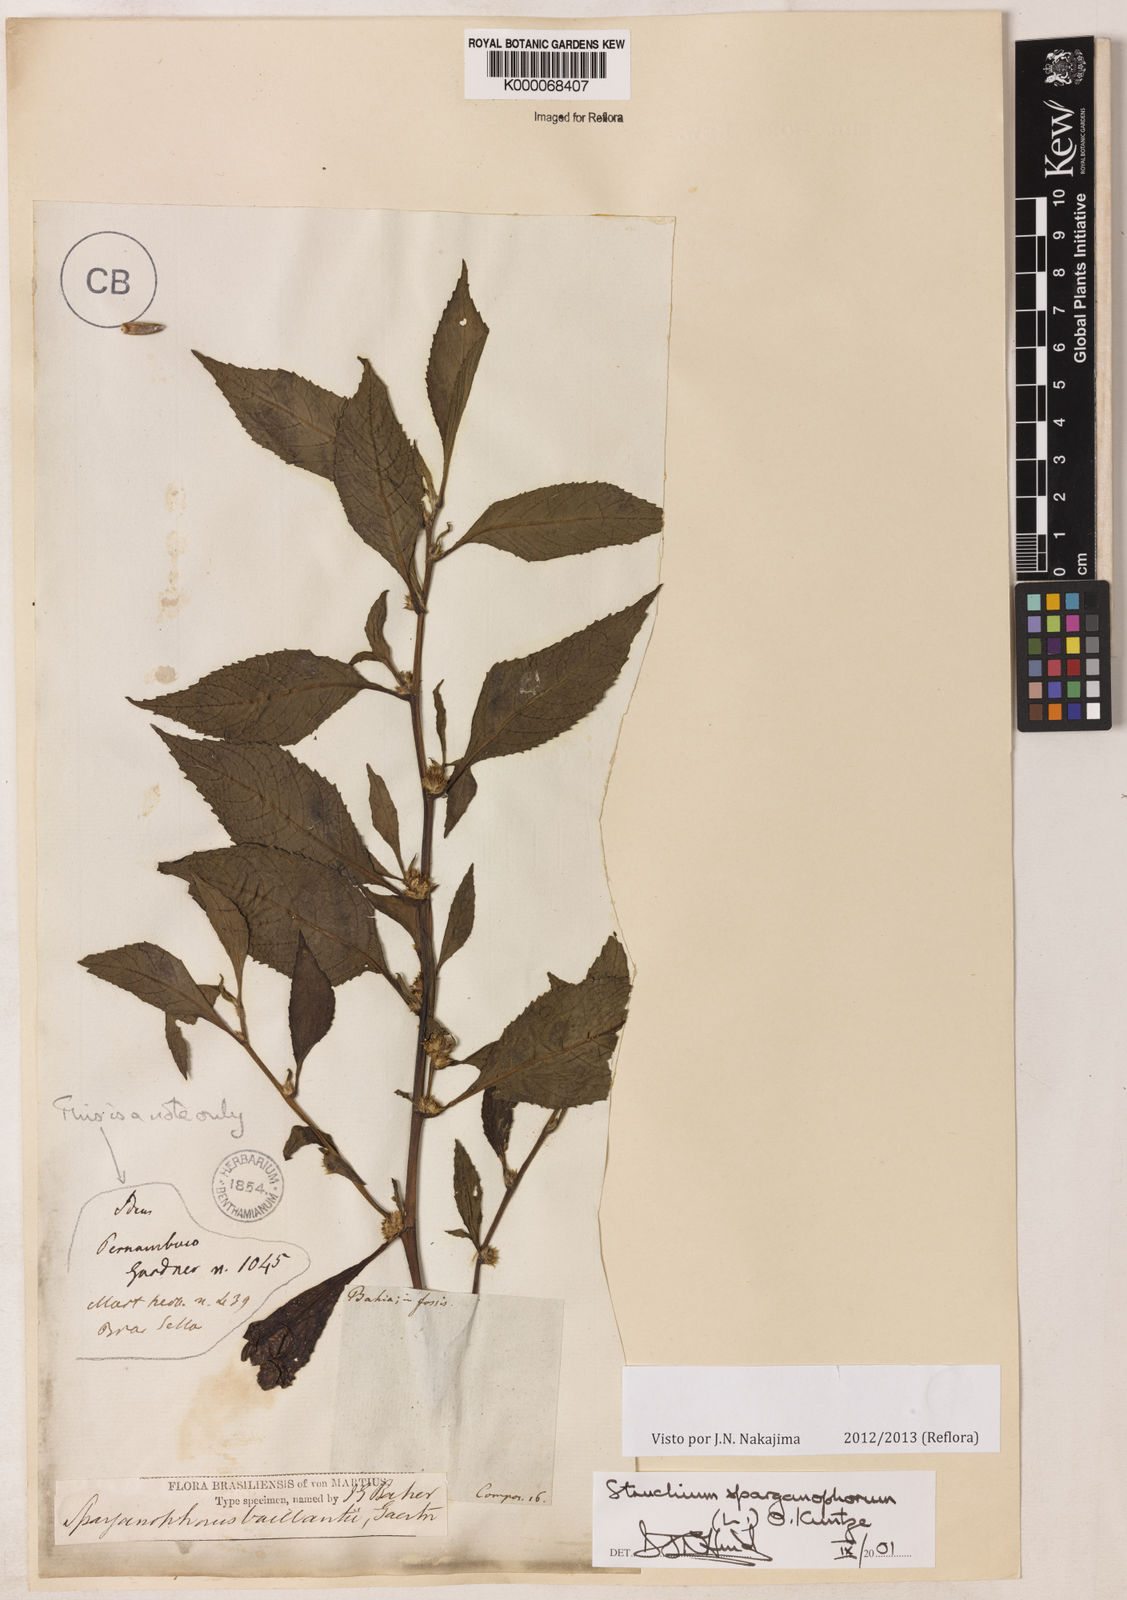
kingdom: Plantae
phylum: Tracheophyta
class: Magnoliopsida
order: Asterales
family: Asteraceae
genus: Struchium
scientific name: Struchium sparganophorum
